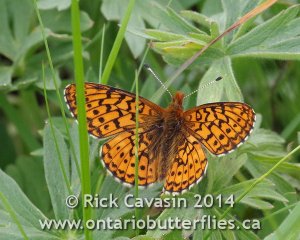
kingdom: Animalia
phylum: Arthropoda
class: Insecta
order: Lepidoptera
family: Nymphalidae
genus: Boloria
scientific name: Boloria kriemhild
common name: Relict Fritillary
